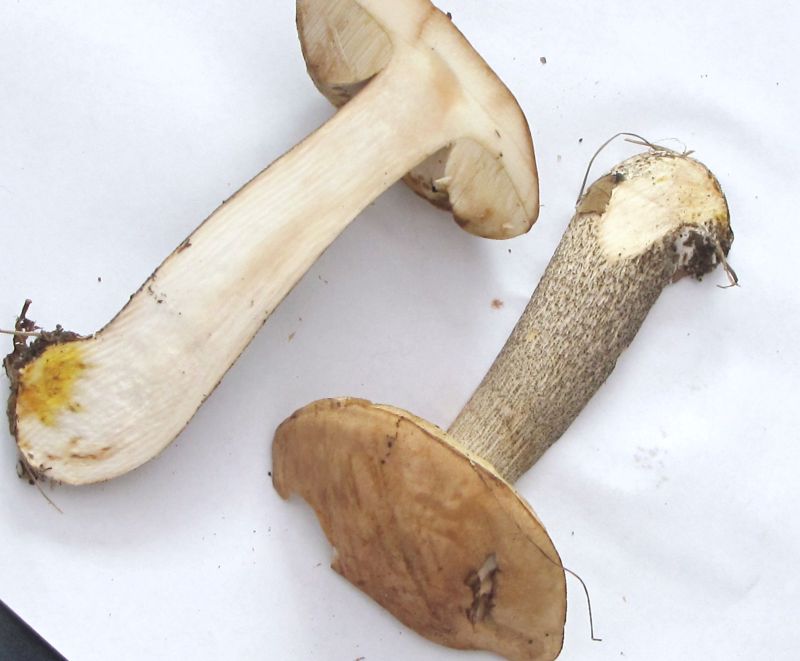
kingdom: Fungi
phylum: Basidiomycota
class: Agaricomycetes
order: Boletales
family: Boletaceae
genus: Leccinum
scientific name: Leccinum cyaneobasileucum
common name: almindelig skælrørhat
